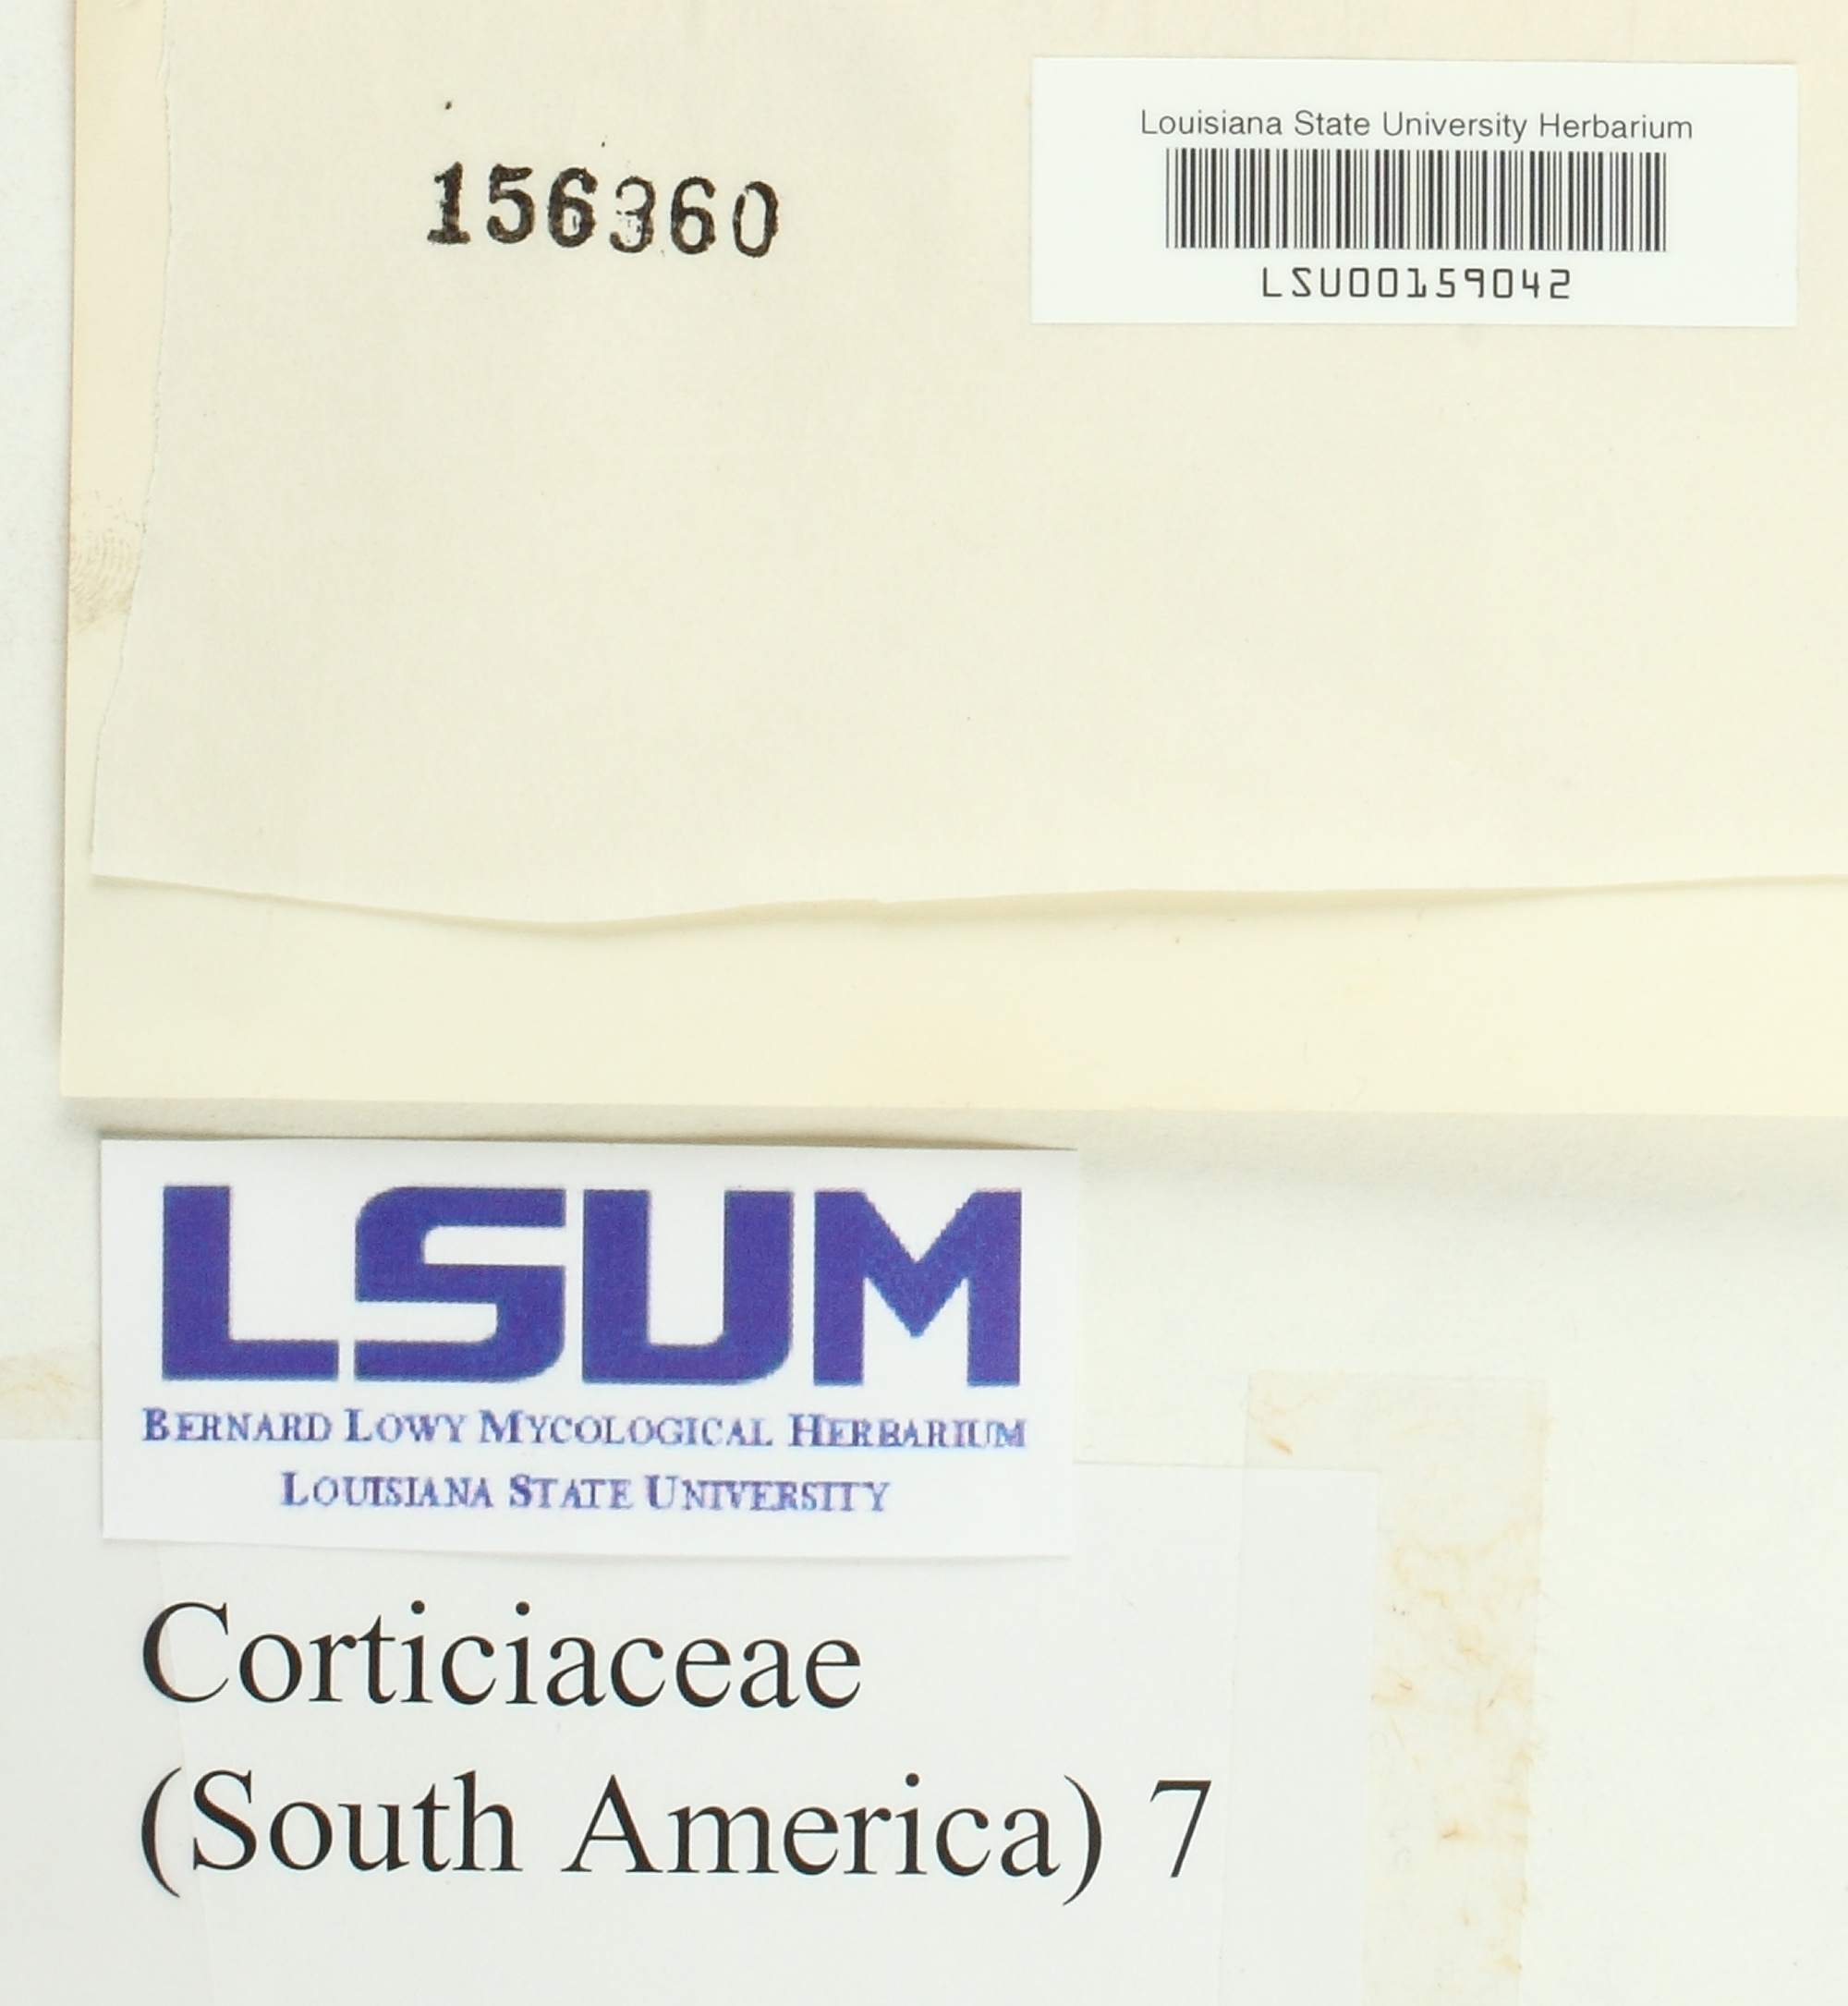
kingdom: Fungi
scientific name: Fungi
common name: Fungi
